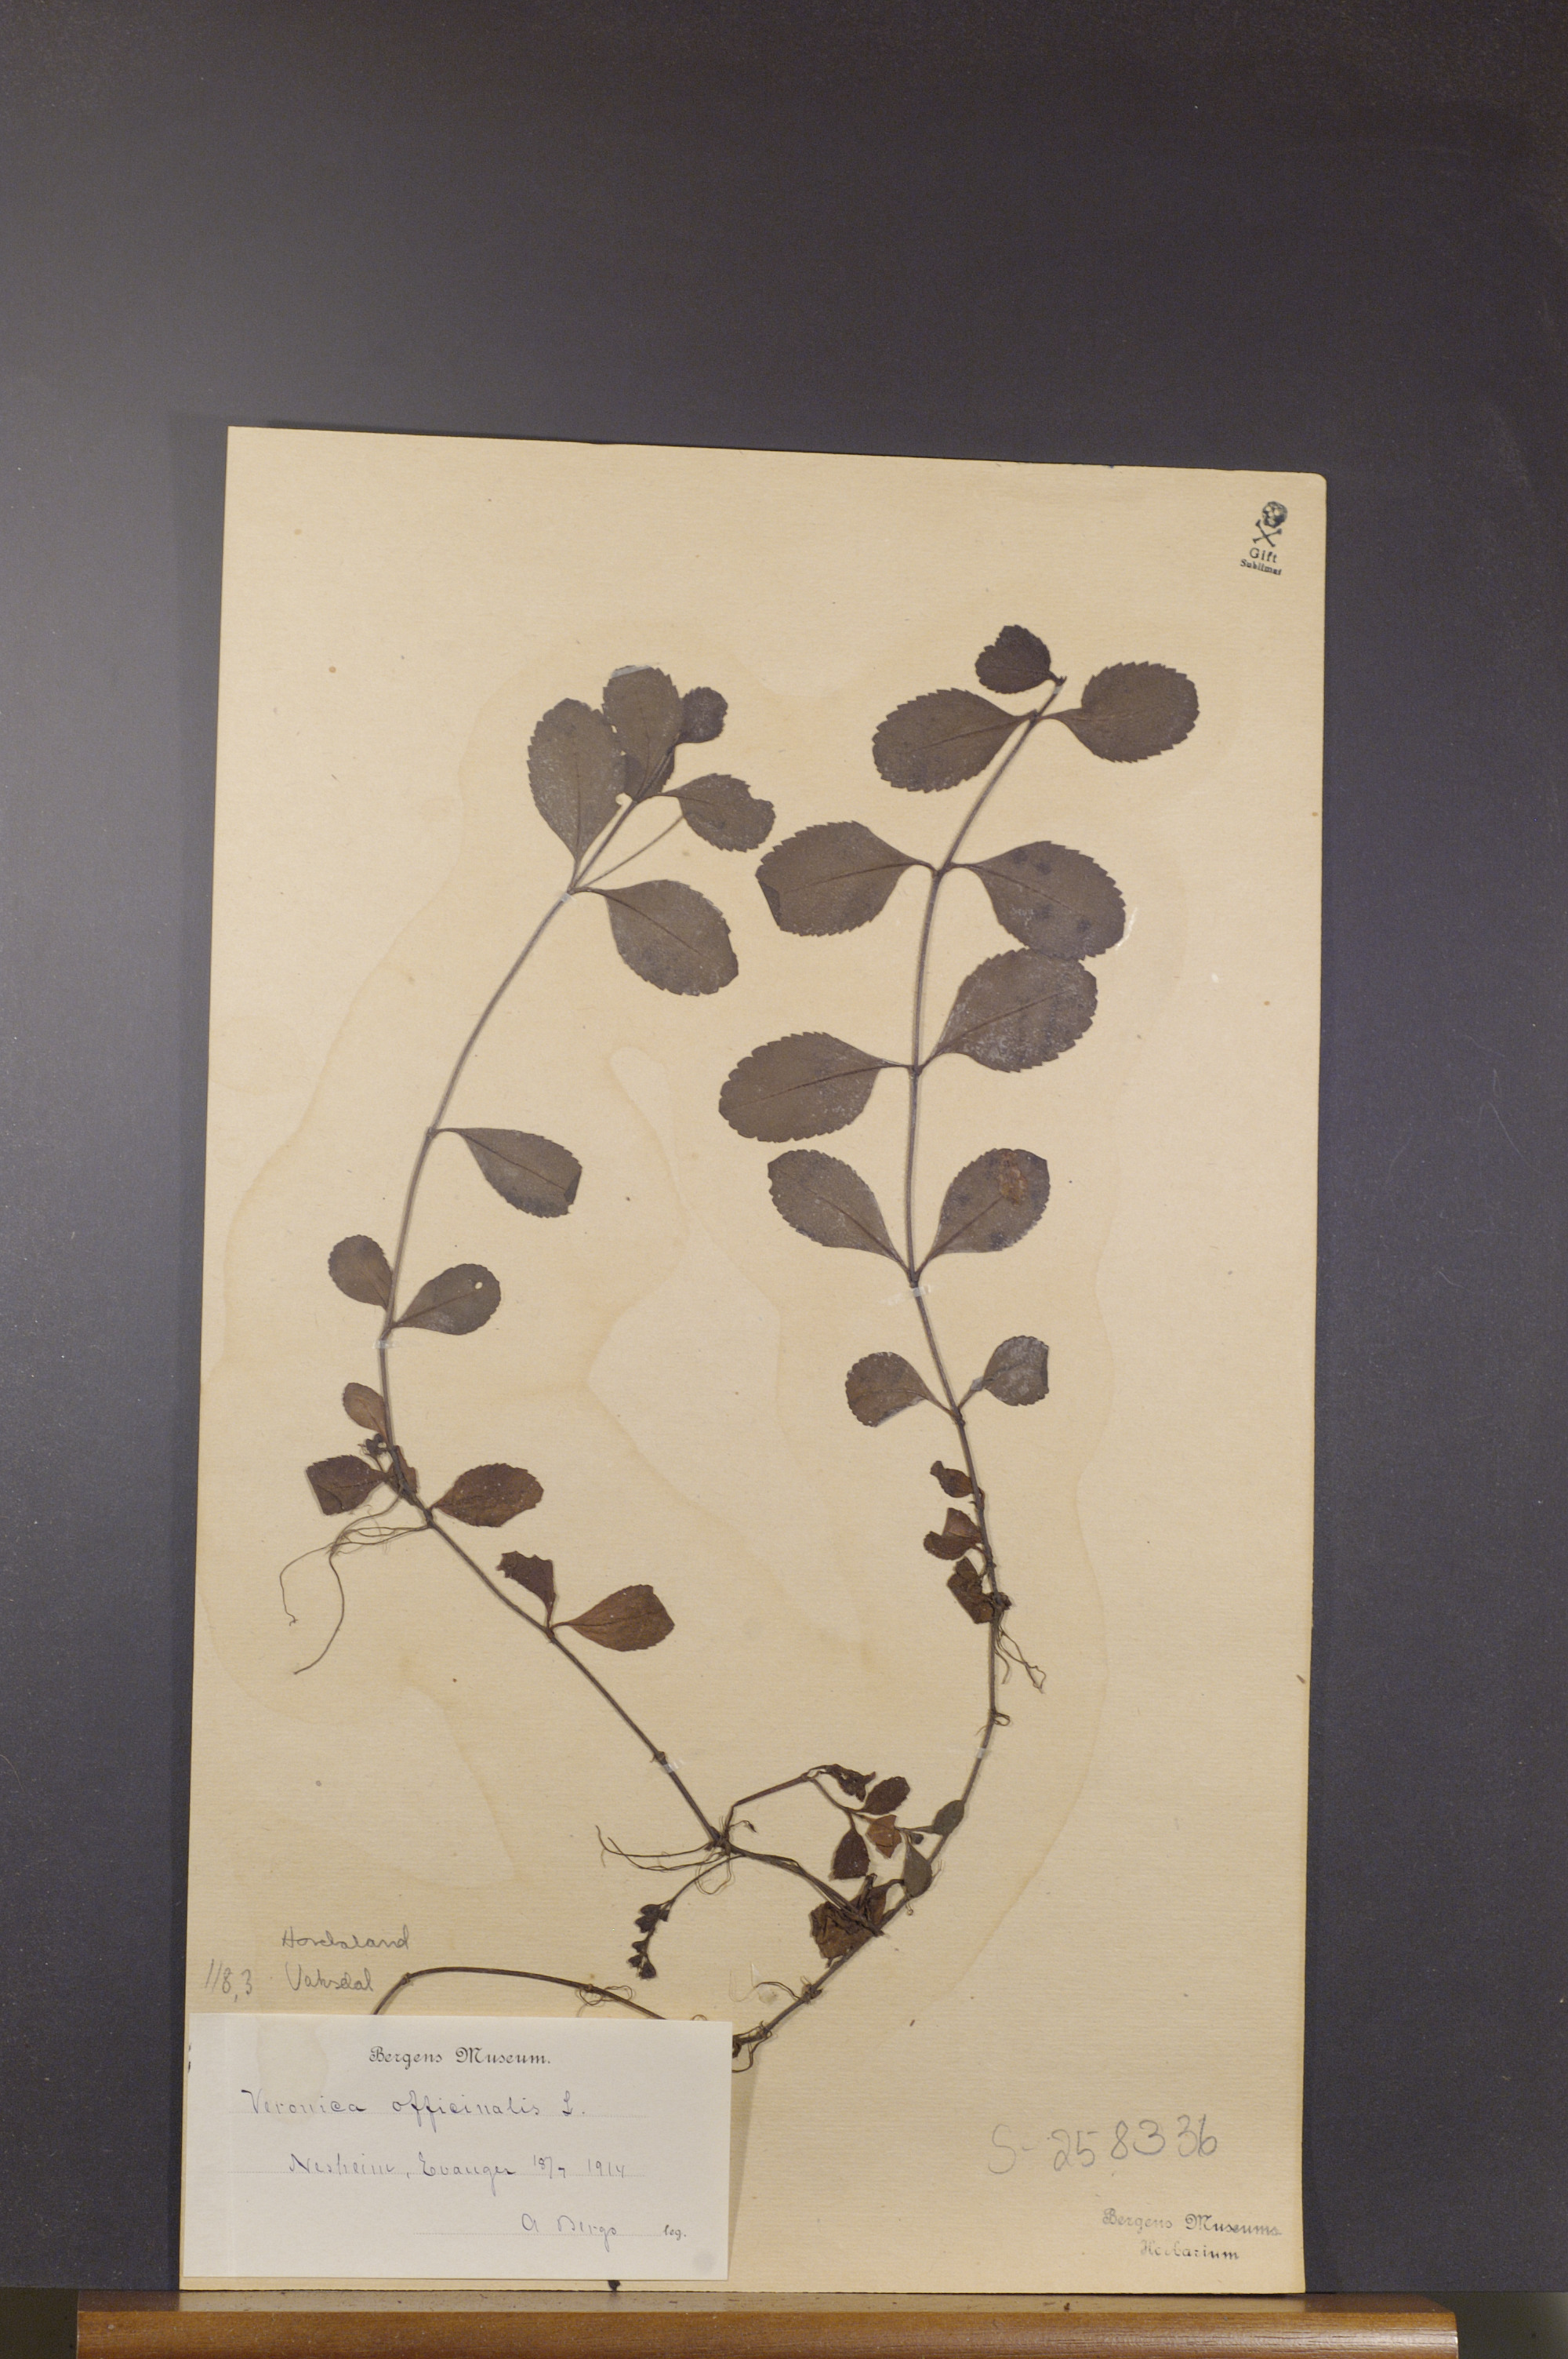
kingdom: Plantae
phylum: Tracheophyta
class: Magnoliopsida
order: Lamiales
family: Plantaginaceae
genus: Veronica
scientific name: Veronica officinalis
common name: Common speedwell
